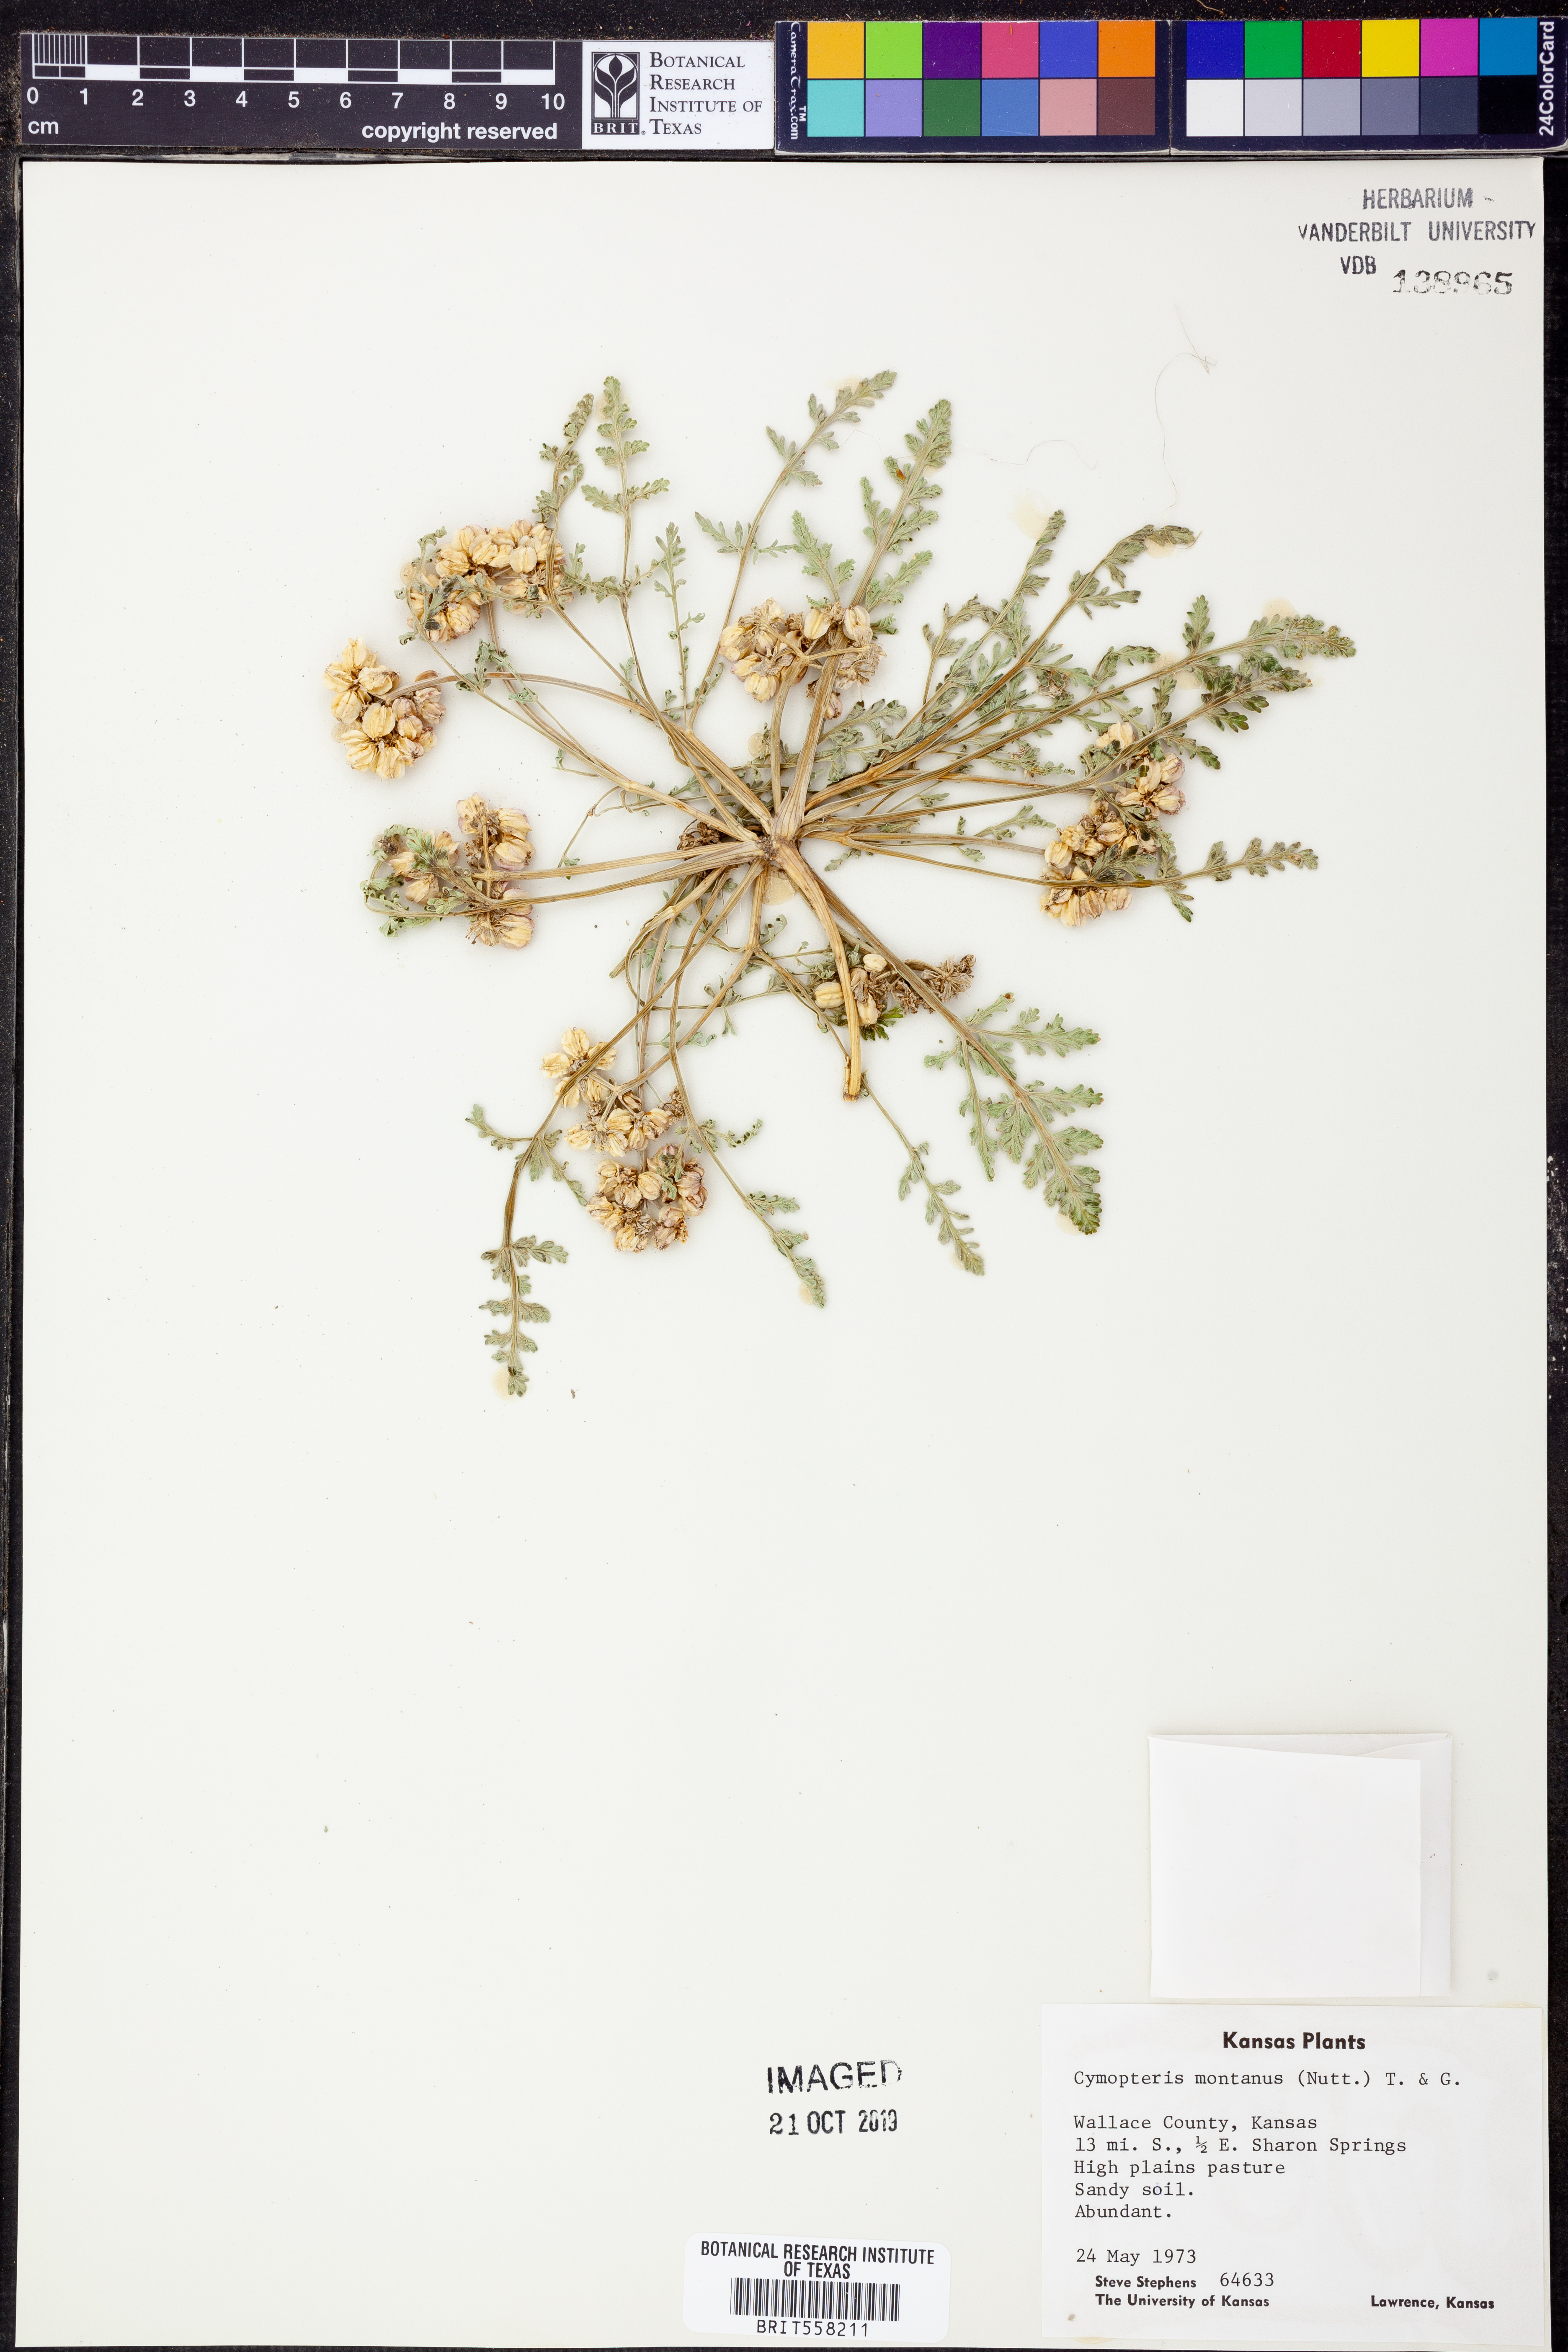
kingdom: Plantae
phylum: Tracheophyta
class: Magnoliopsida
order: Apiales
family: Apiaceae
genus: Vesper
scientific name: Vesper montanus
